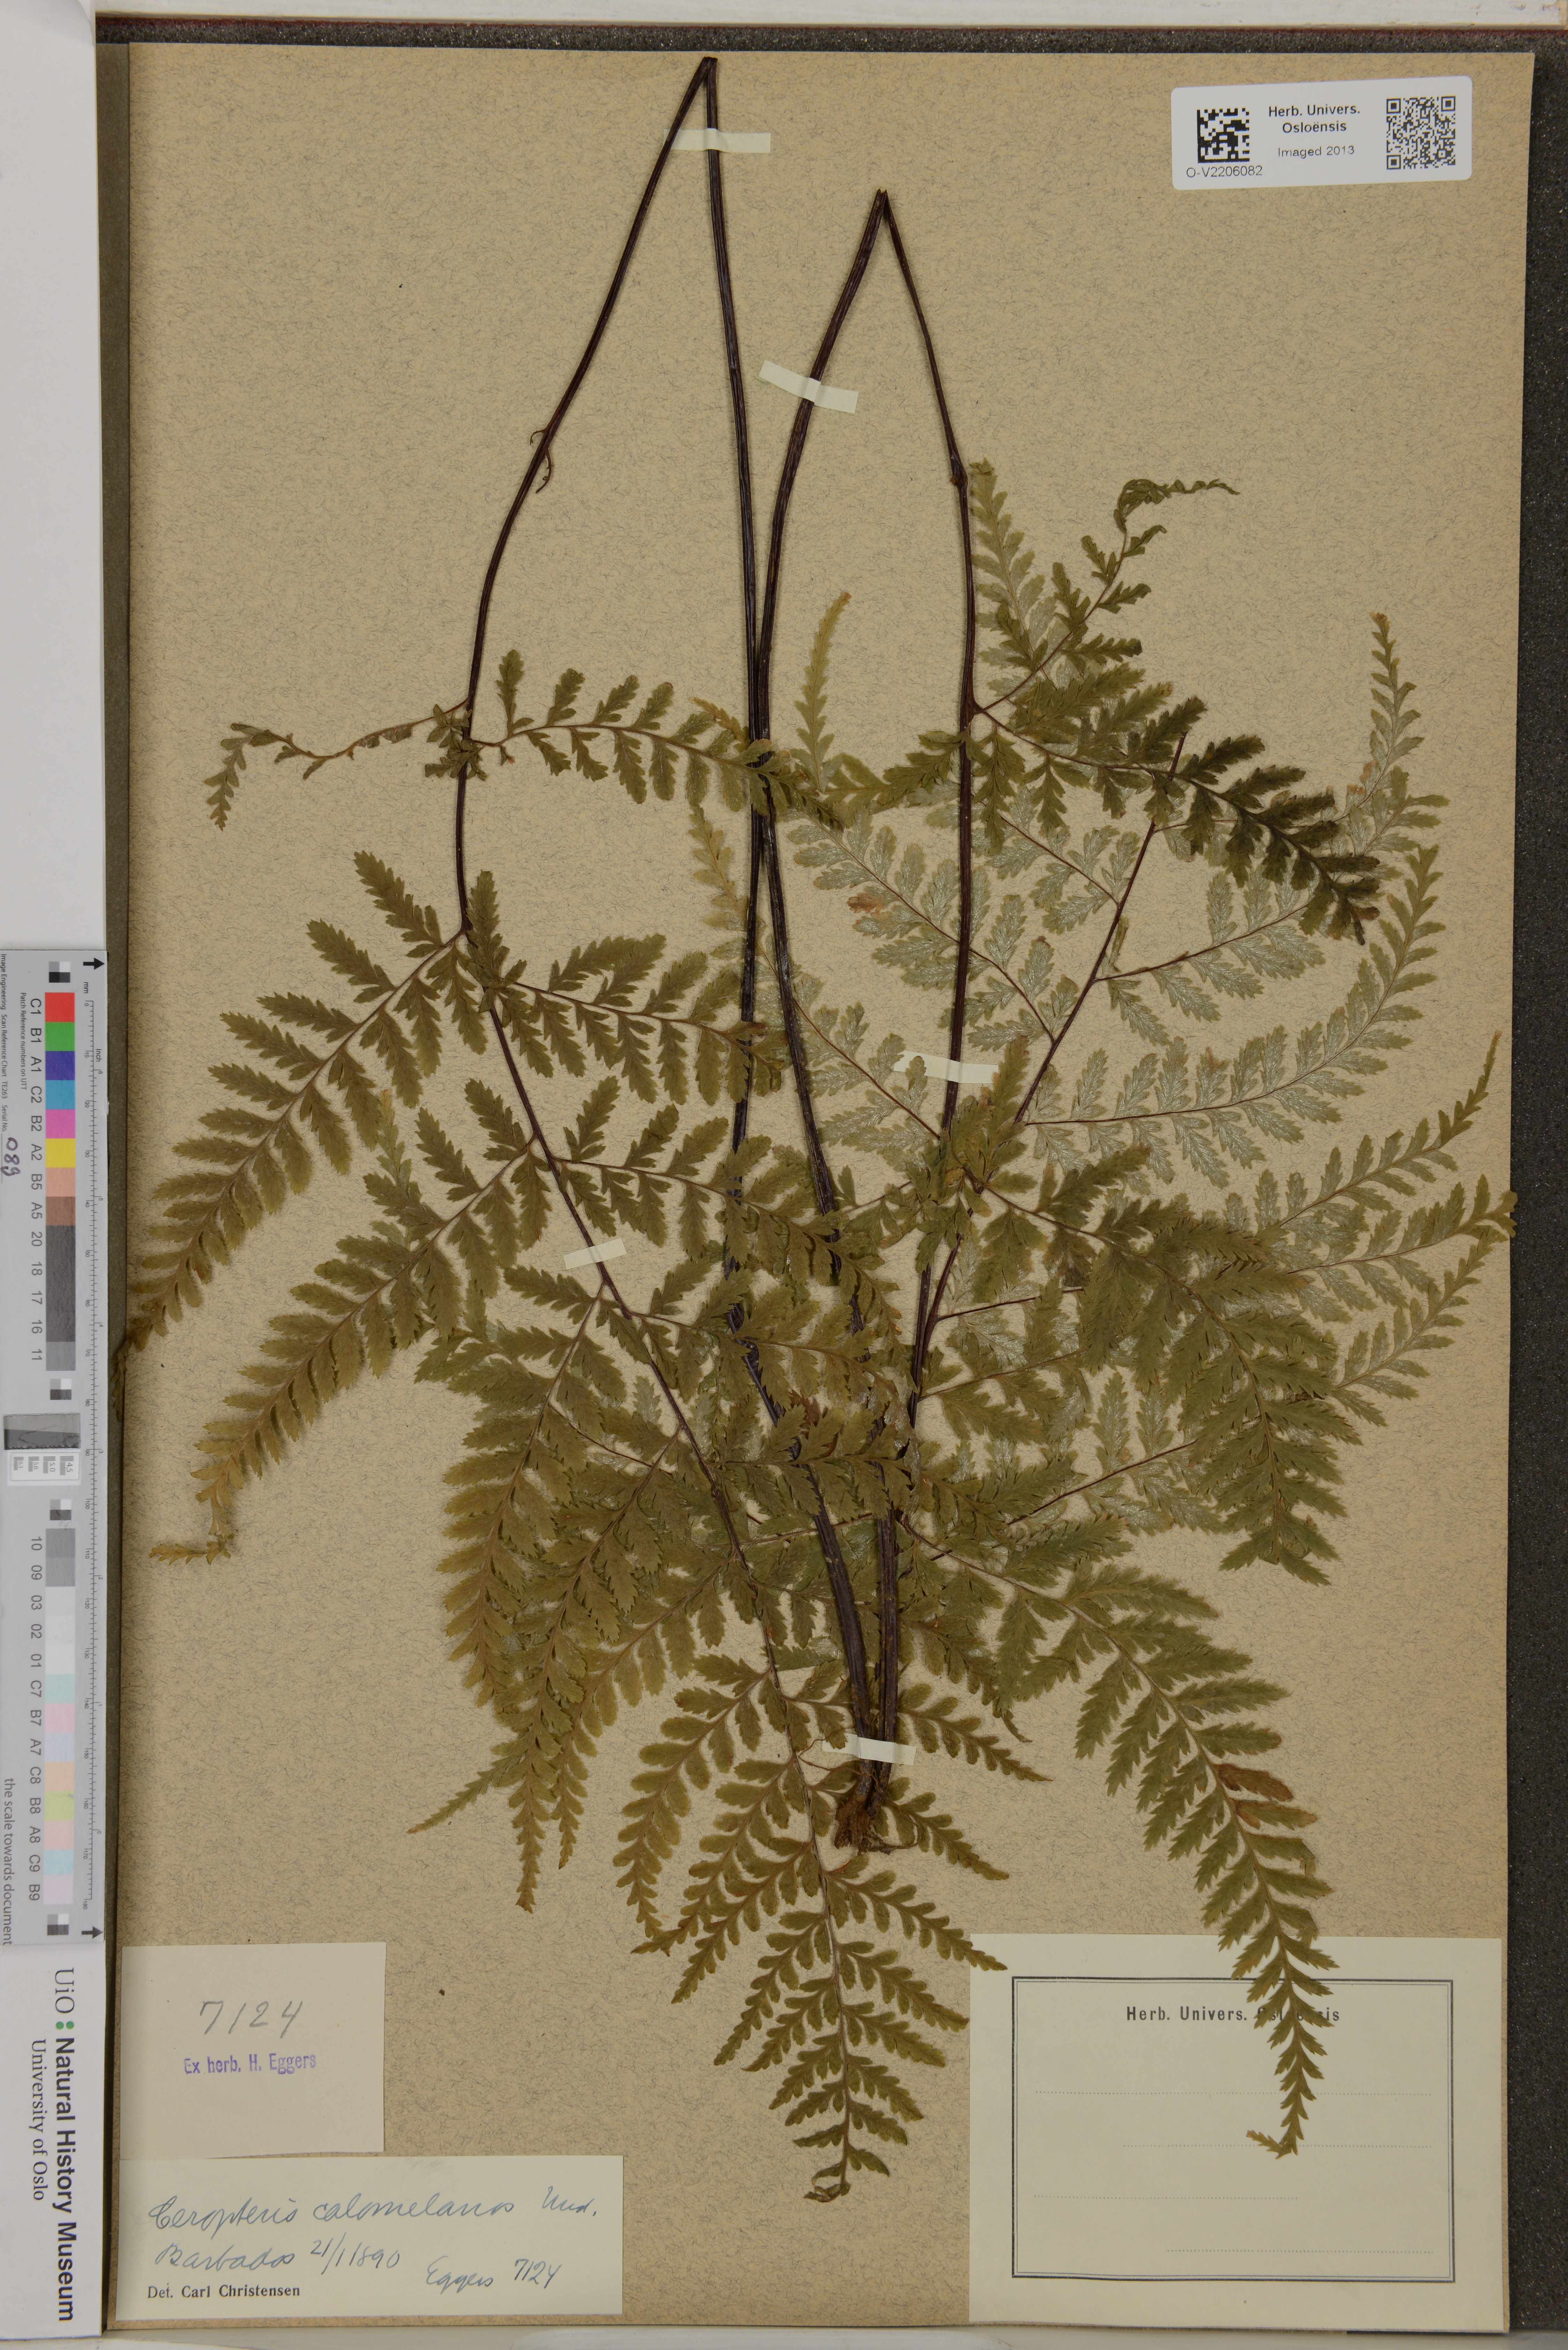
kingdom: Plantae
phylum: Tracheophyta
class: Polypodiopsida
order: Polypodiales
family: Pteridaceae
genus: Pityrogramma
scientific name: Pityrogramma calomelanos
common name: Dixie silverback fern
